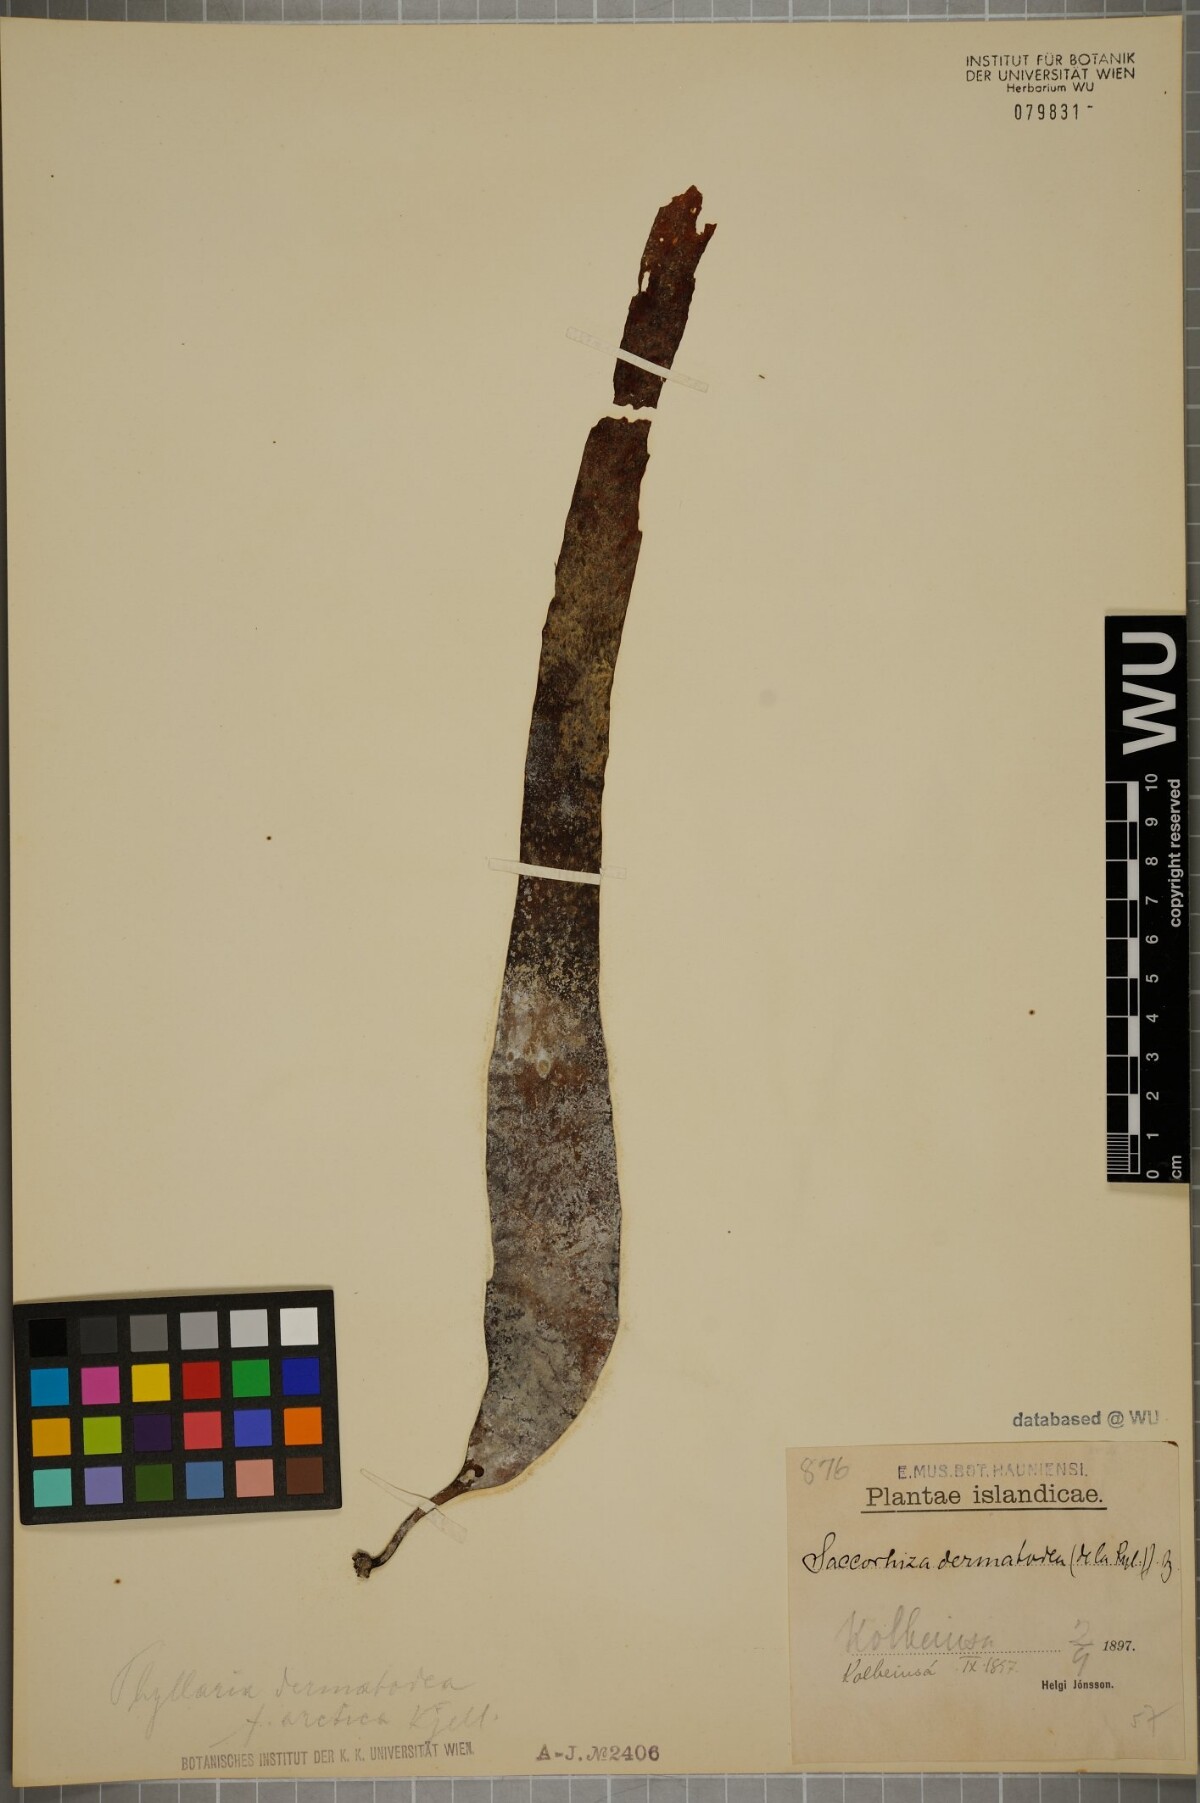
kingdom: Chromista
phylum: Ochrophyta
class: Phaeophyceae
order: Tilopteridales
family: Phyllariaceae
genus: Saccorhiza
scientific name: Saccorhiza dermatodea
